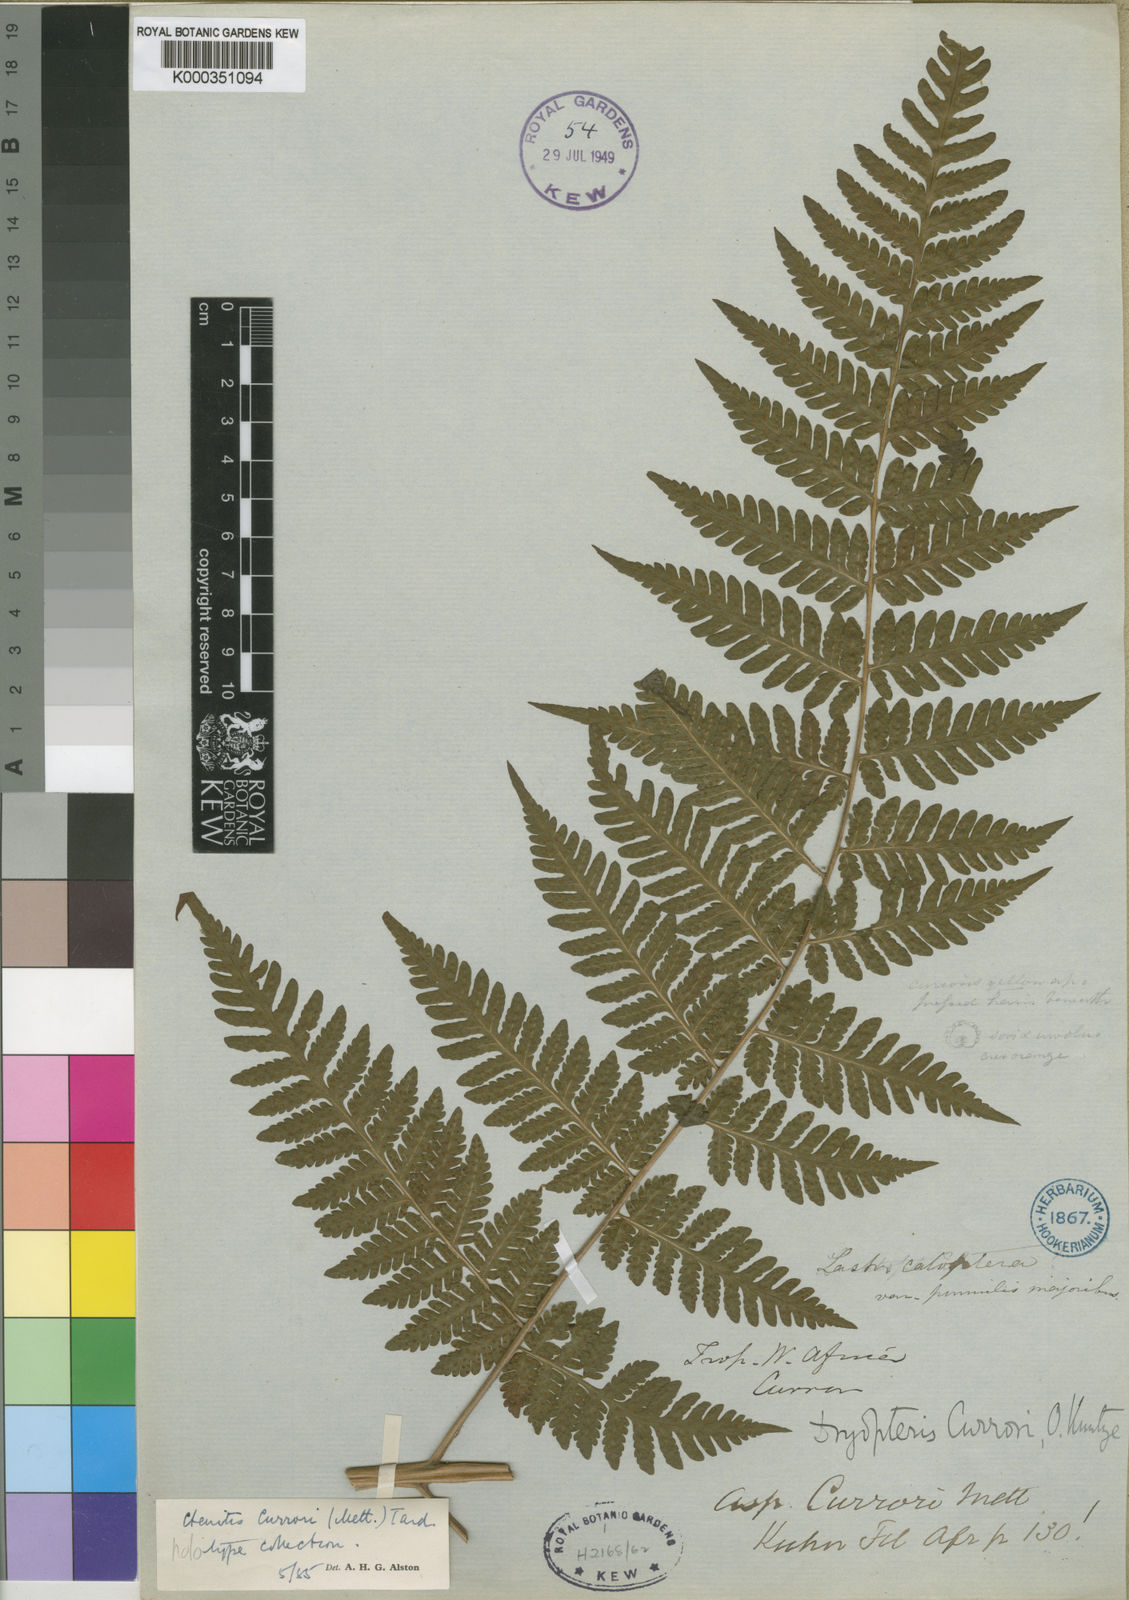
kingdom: Plantae
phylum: Tracheophyta
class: Polypodiopsida
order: Polypodiales
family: Dryopteridaceae
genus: Parapolystichum
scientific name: Parapolystichum currorii
